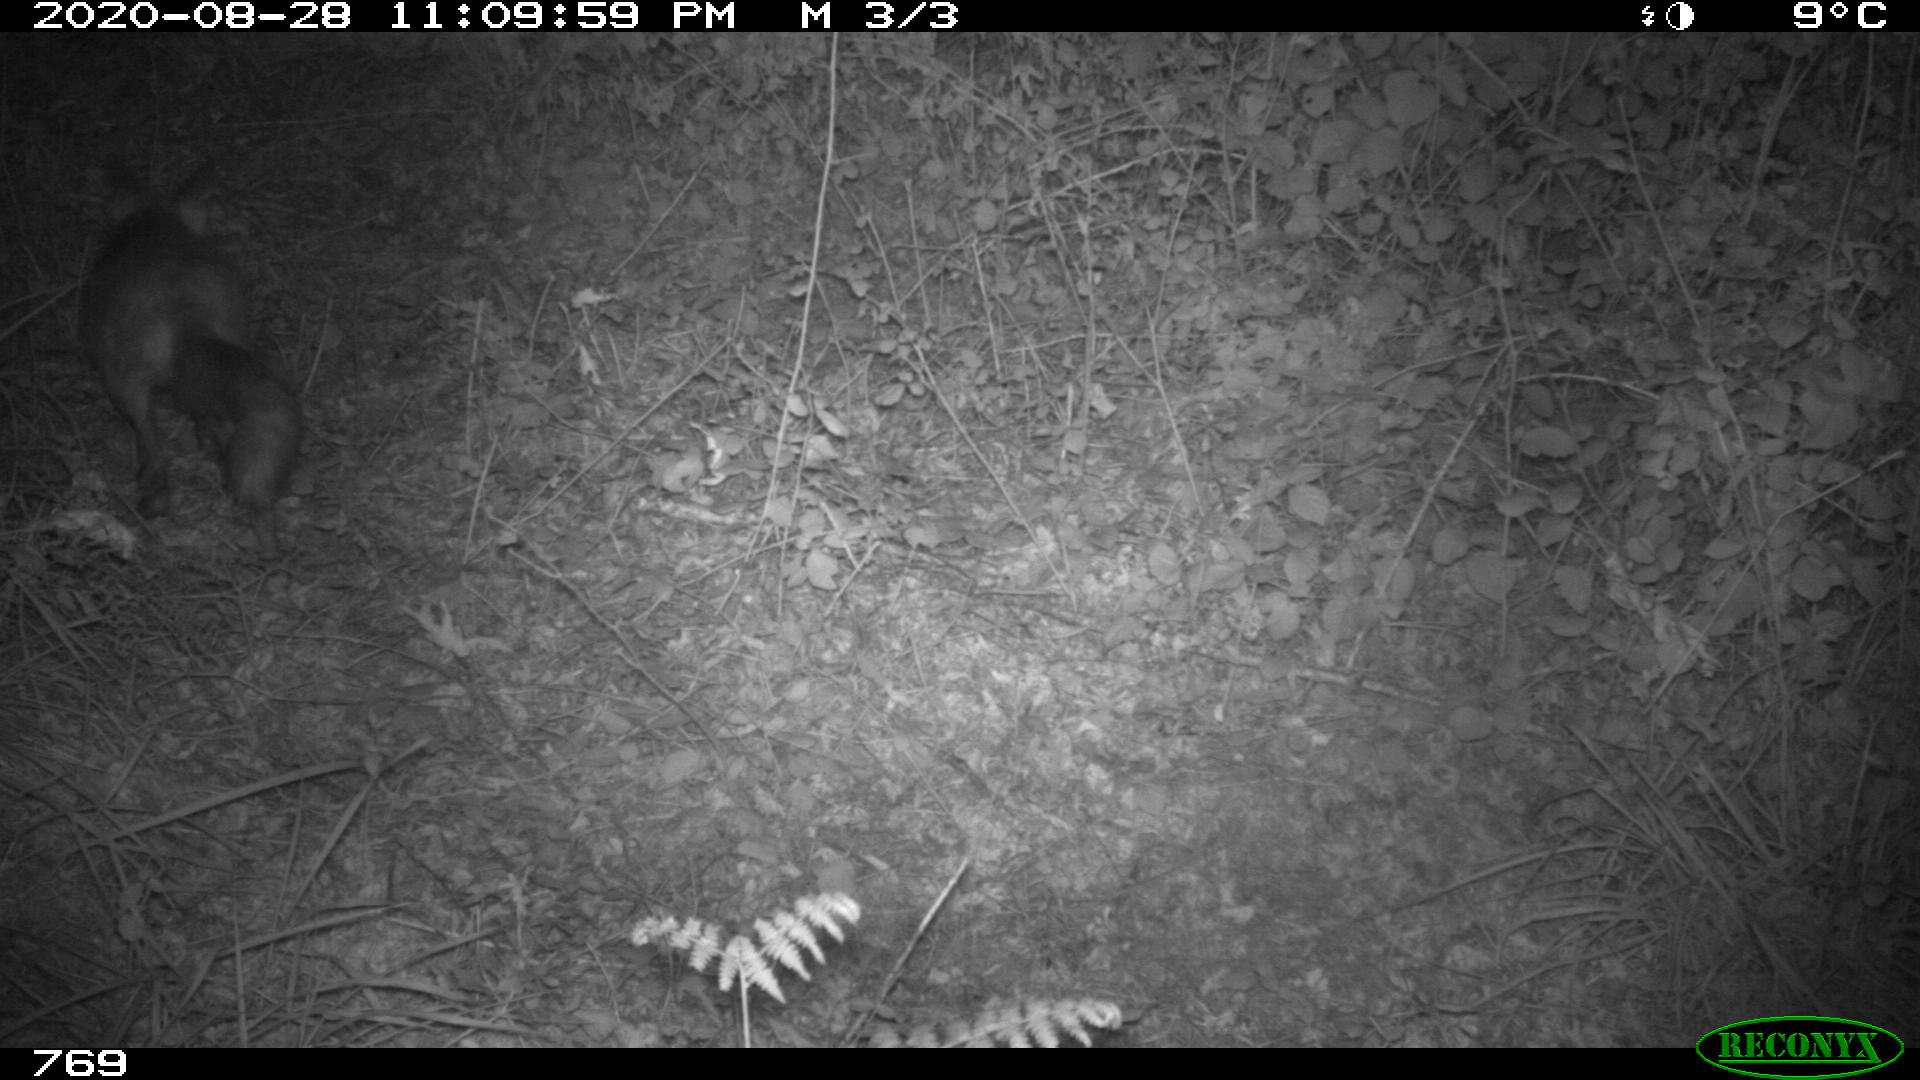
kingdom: Animalia
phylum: Chordata
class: Mammalia
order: Carnivora
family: Canidae
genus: Vulpes
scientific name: Vulpes vulpes
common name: Red fox
